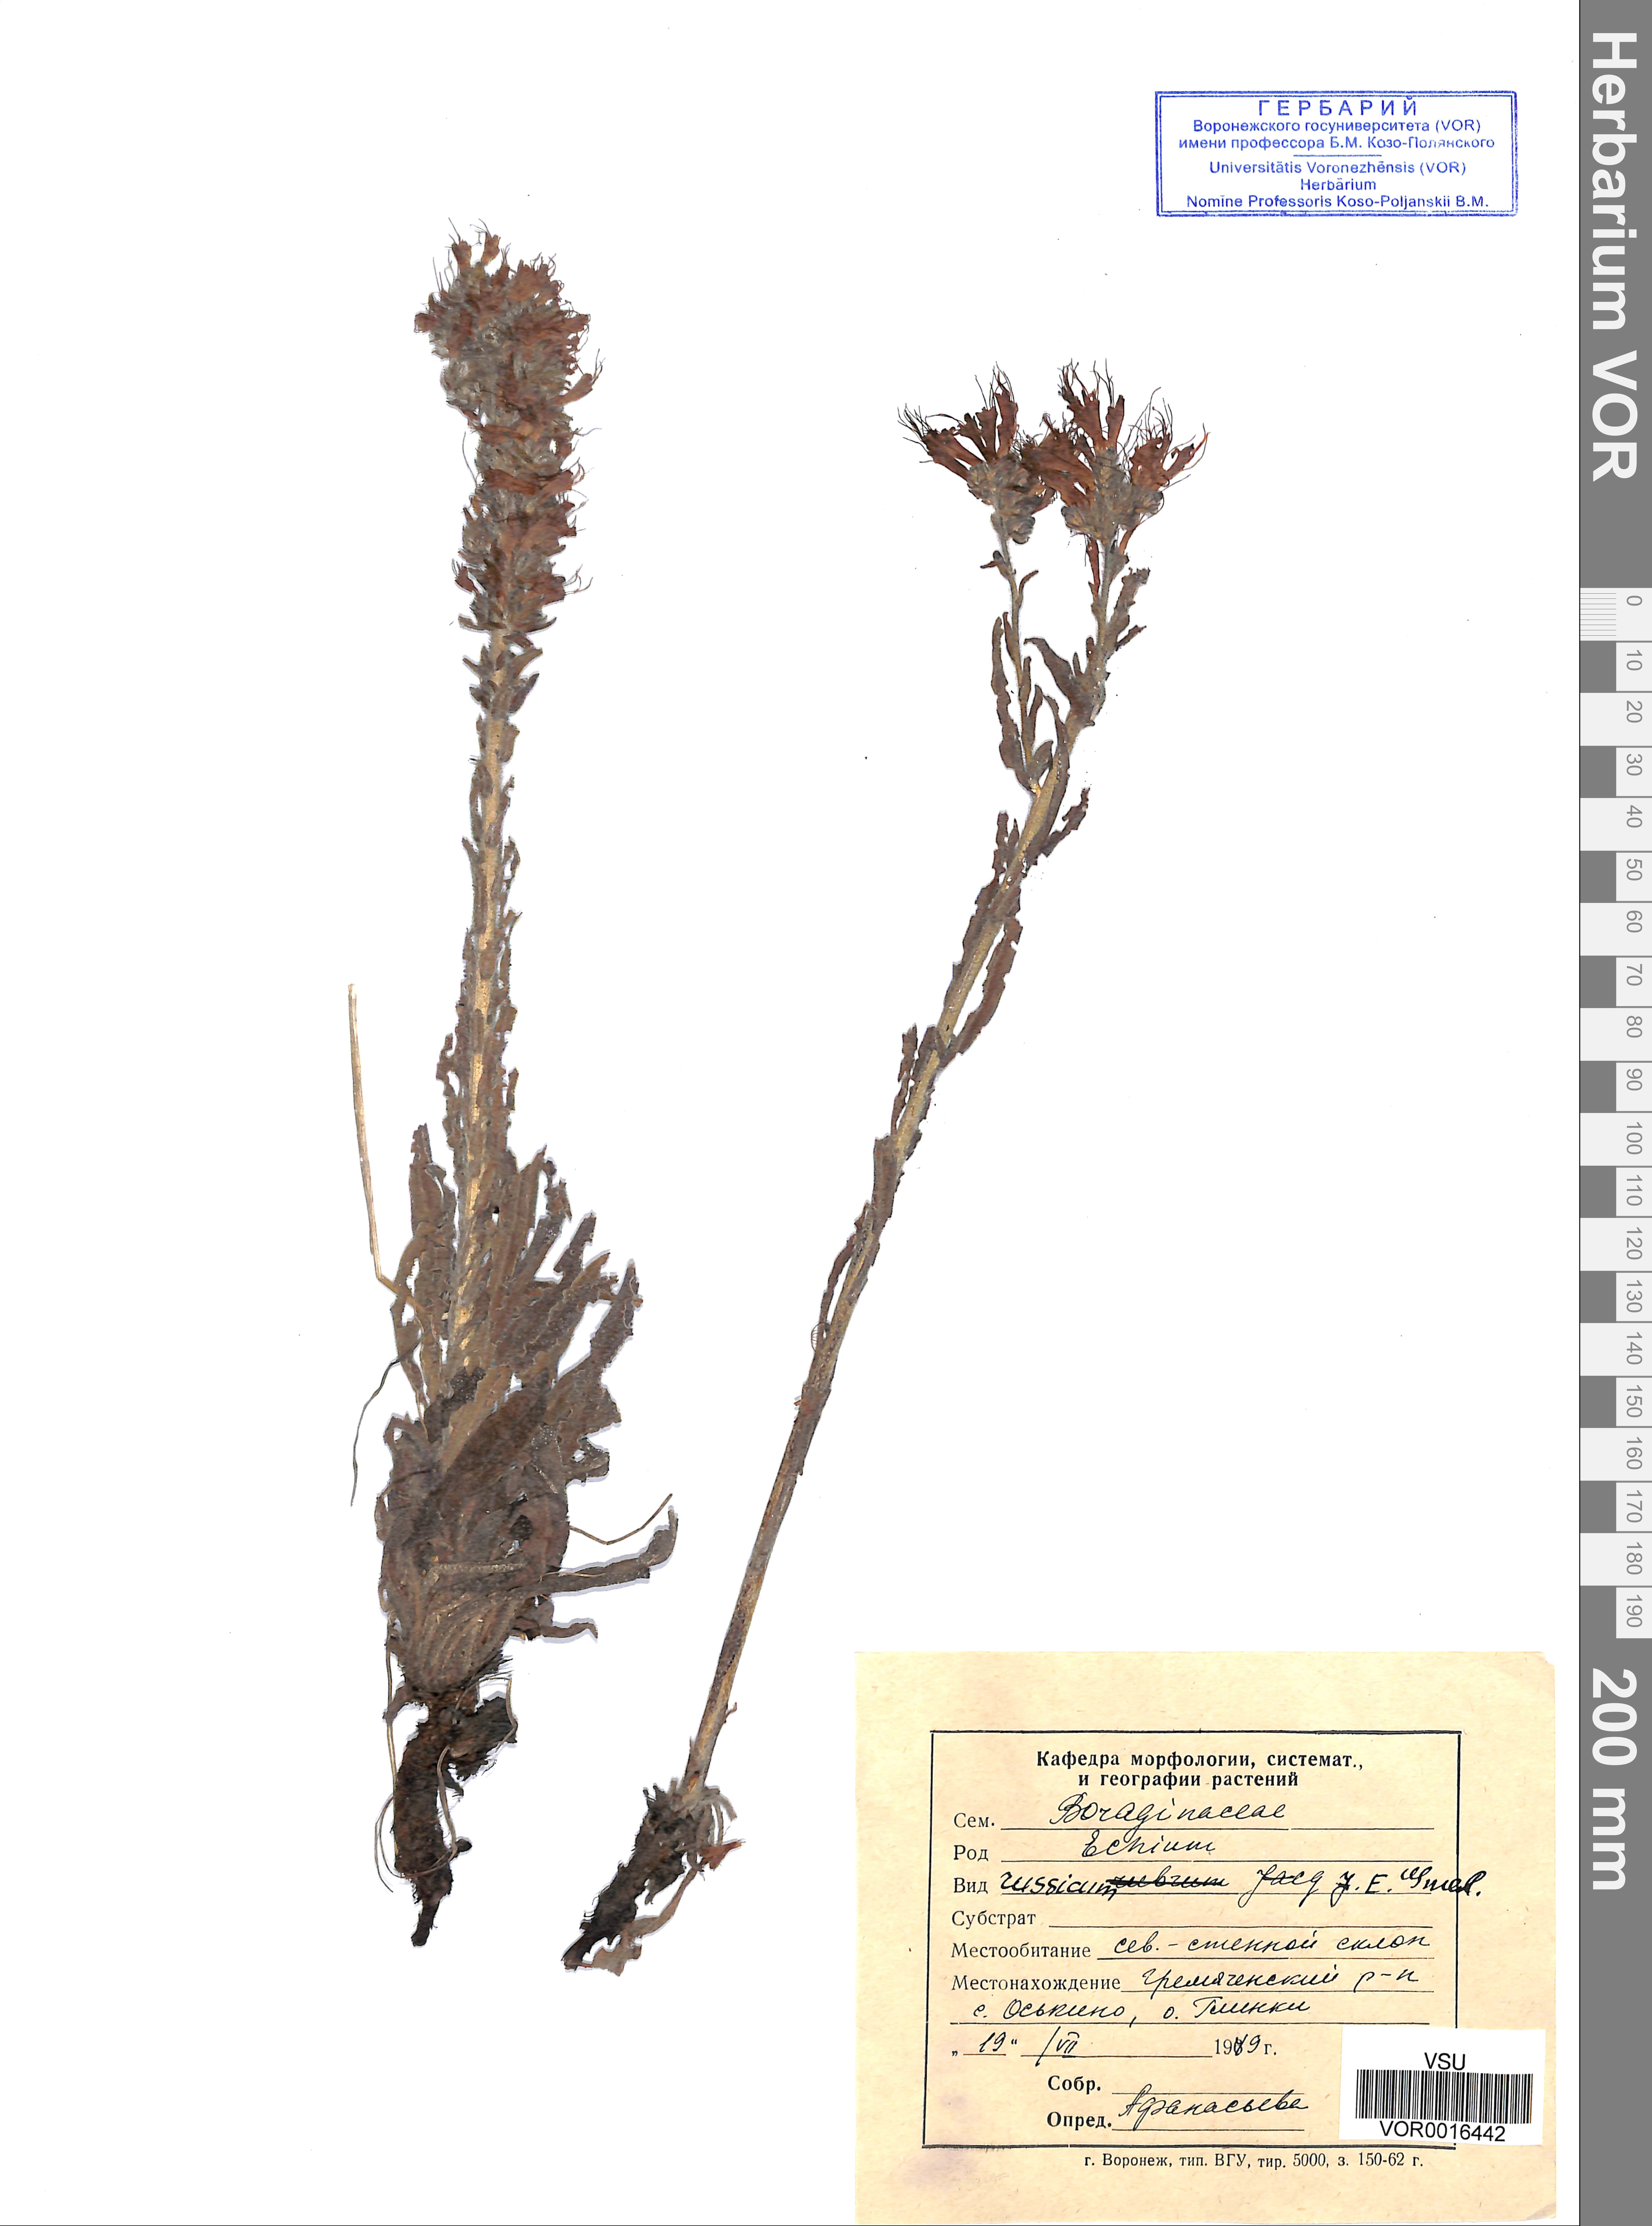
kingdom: Plantae
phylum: Tracheophyta
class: Magnoliopsida
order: Boraginales
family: Boraginaceae
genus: Pontechium
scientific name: Pontechium maculatum
